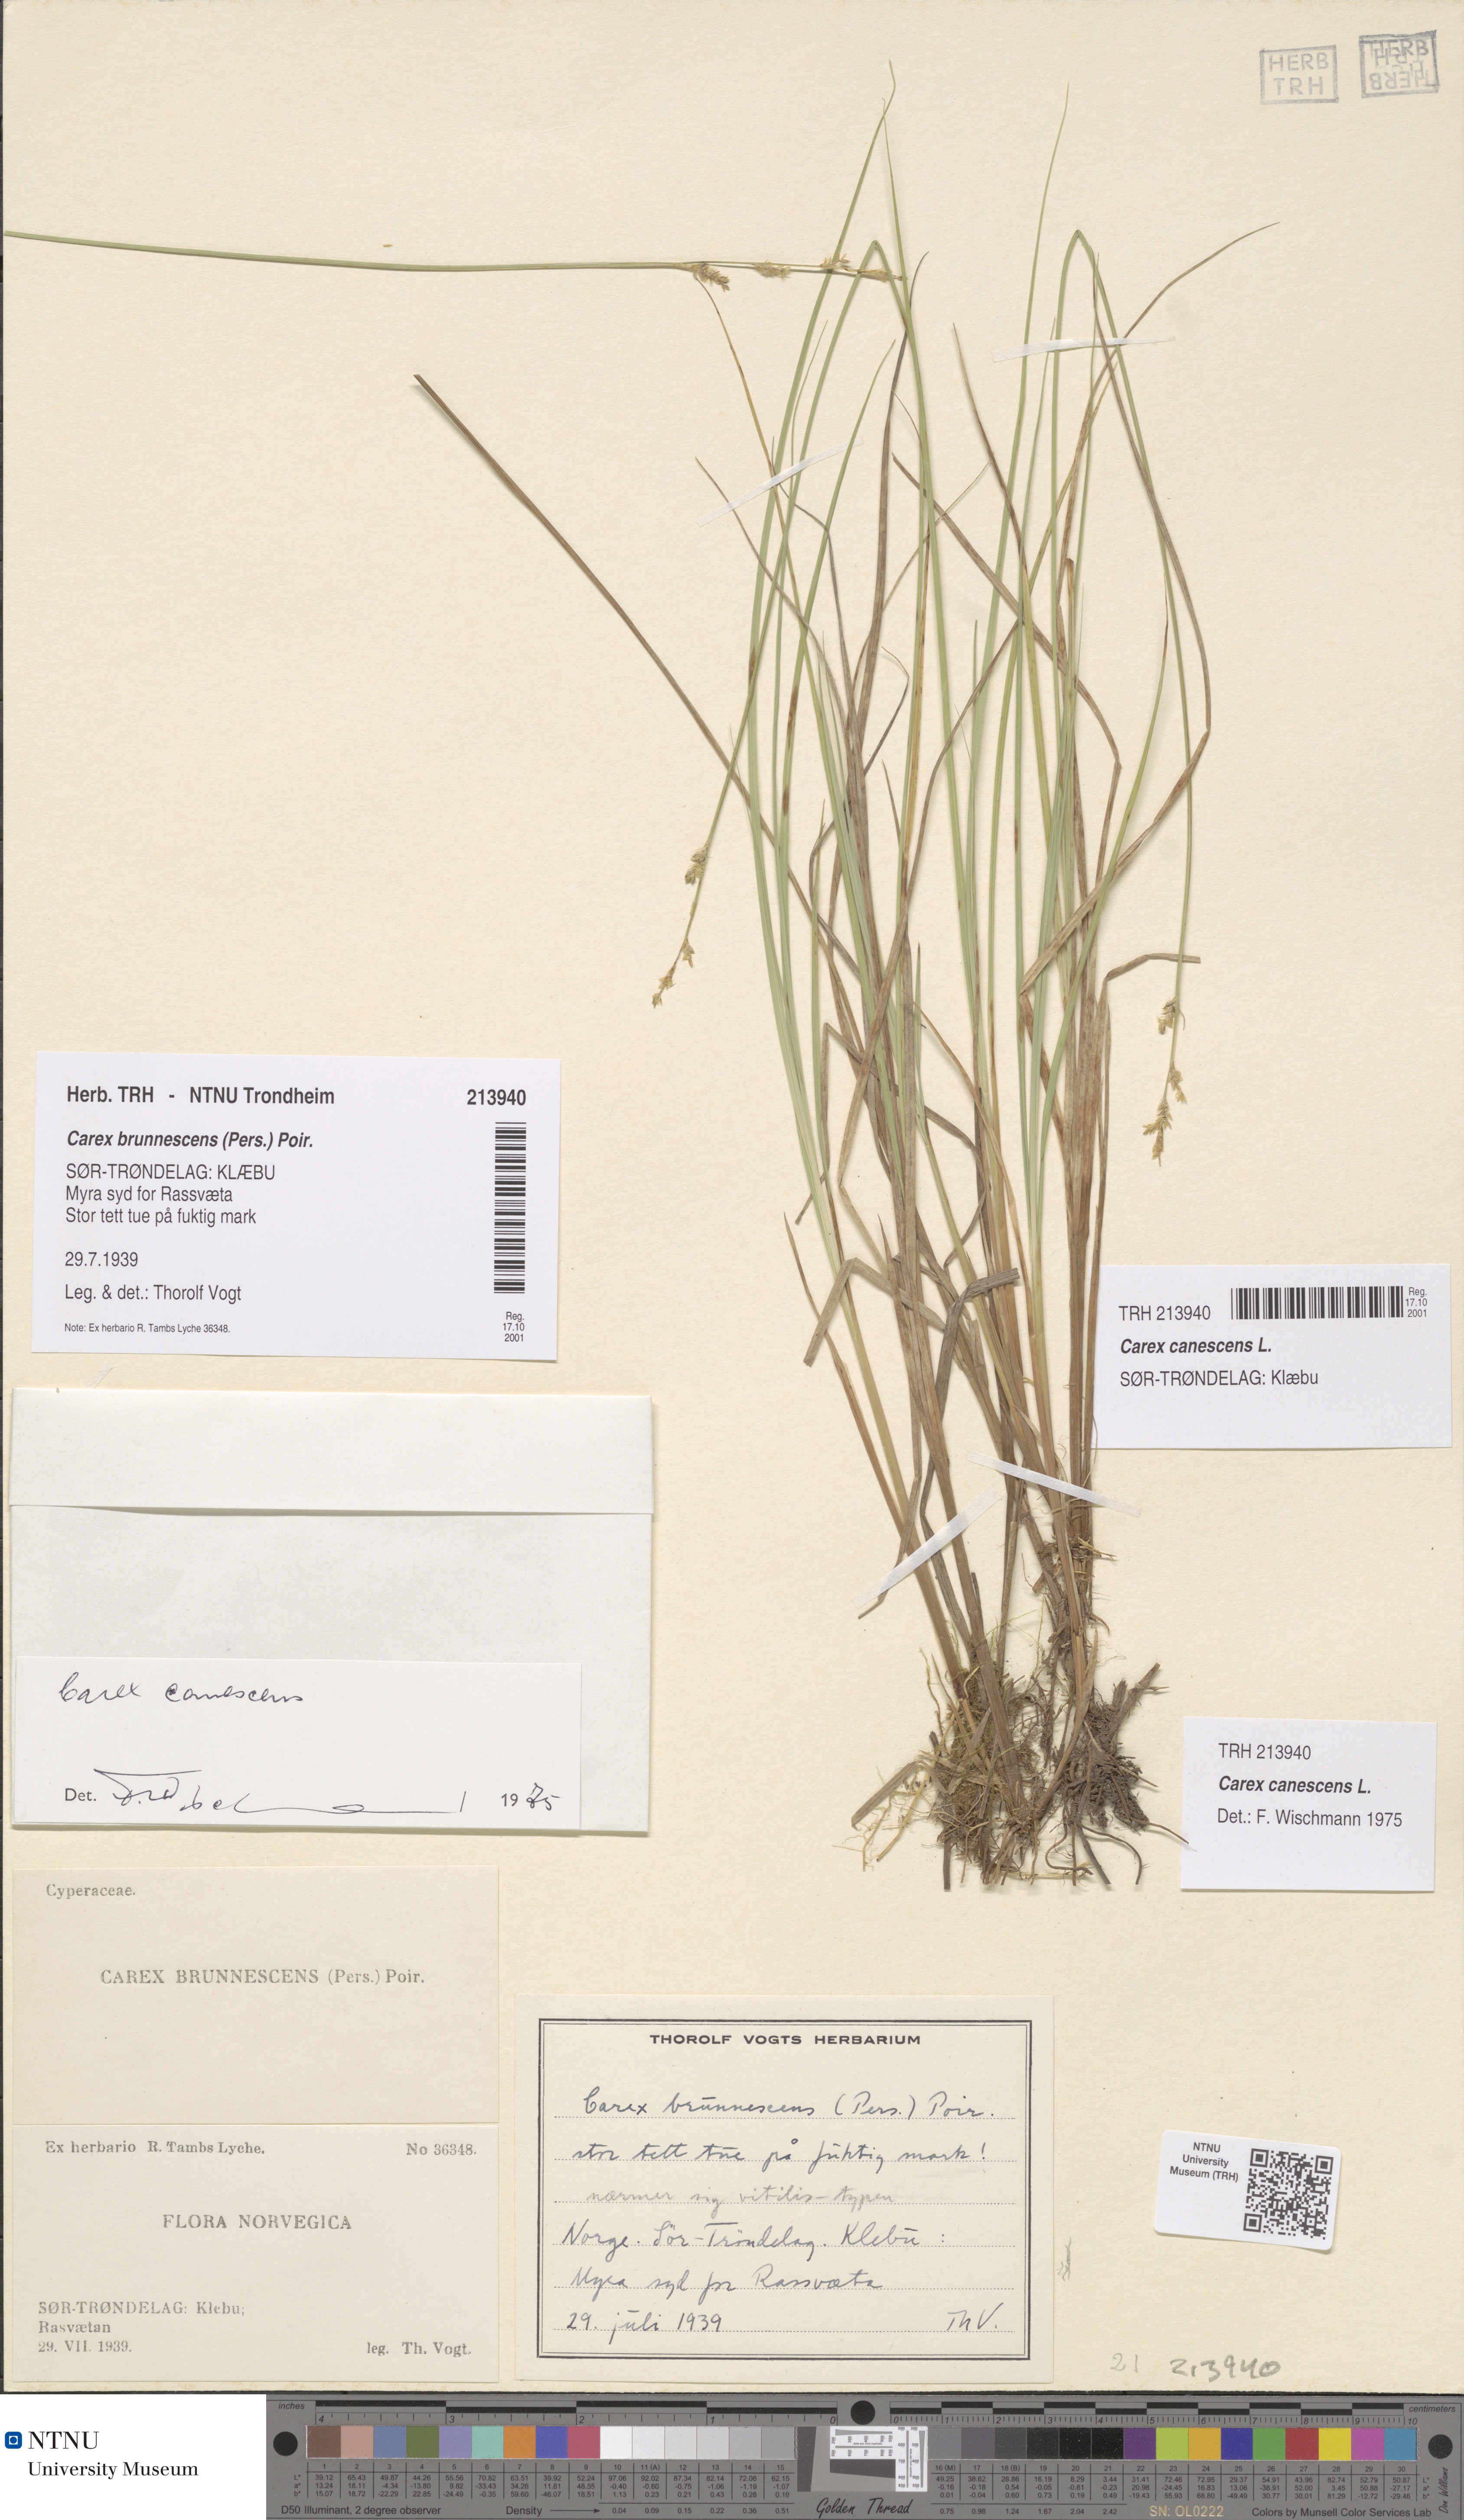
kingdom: Plantae
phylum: Tracheophyta
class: Liliopsida
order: Poales
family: Cyperaceae
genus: Carex
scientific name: Carex canescens
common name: White sedge
